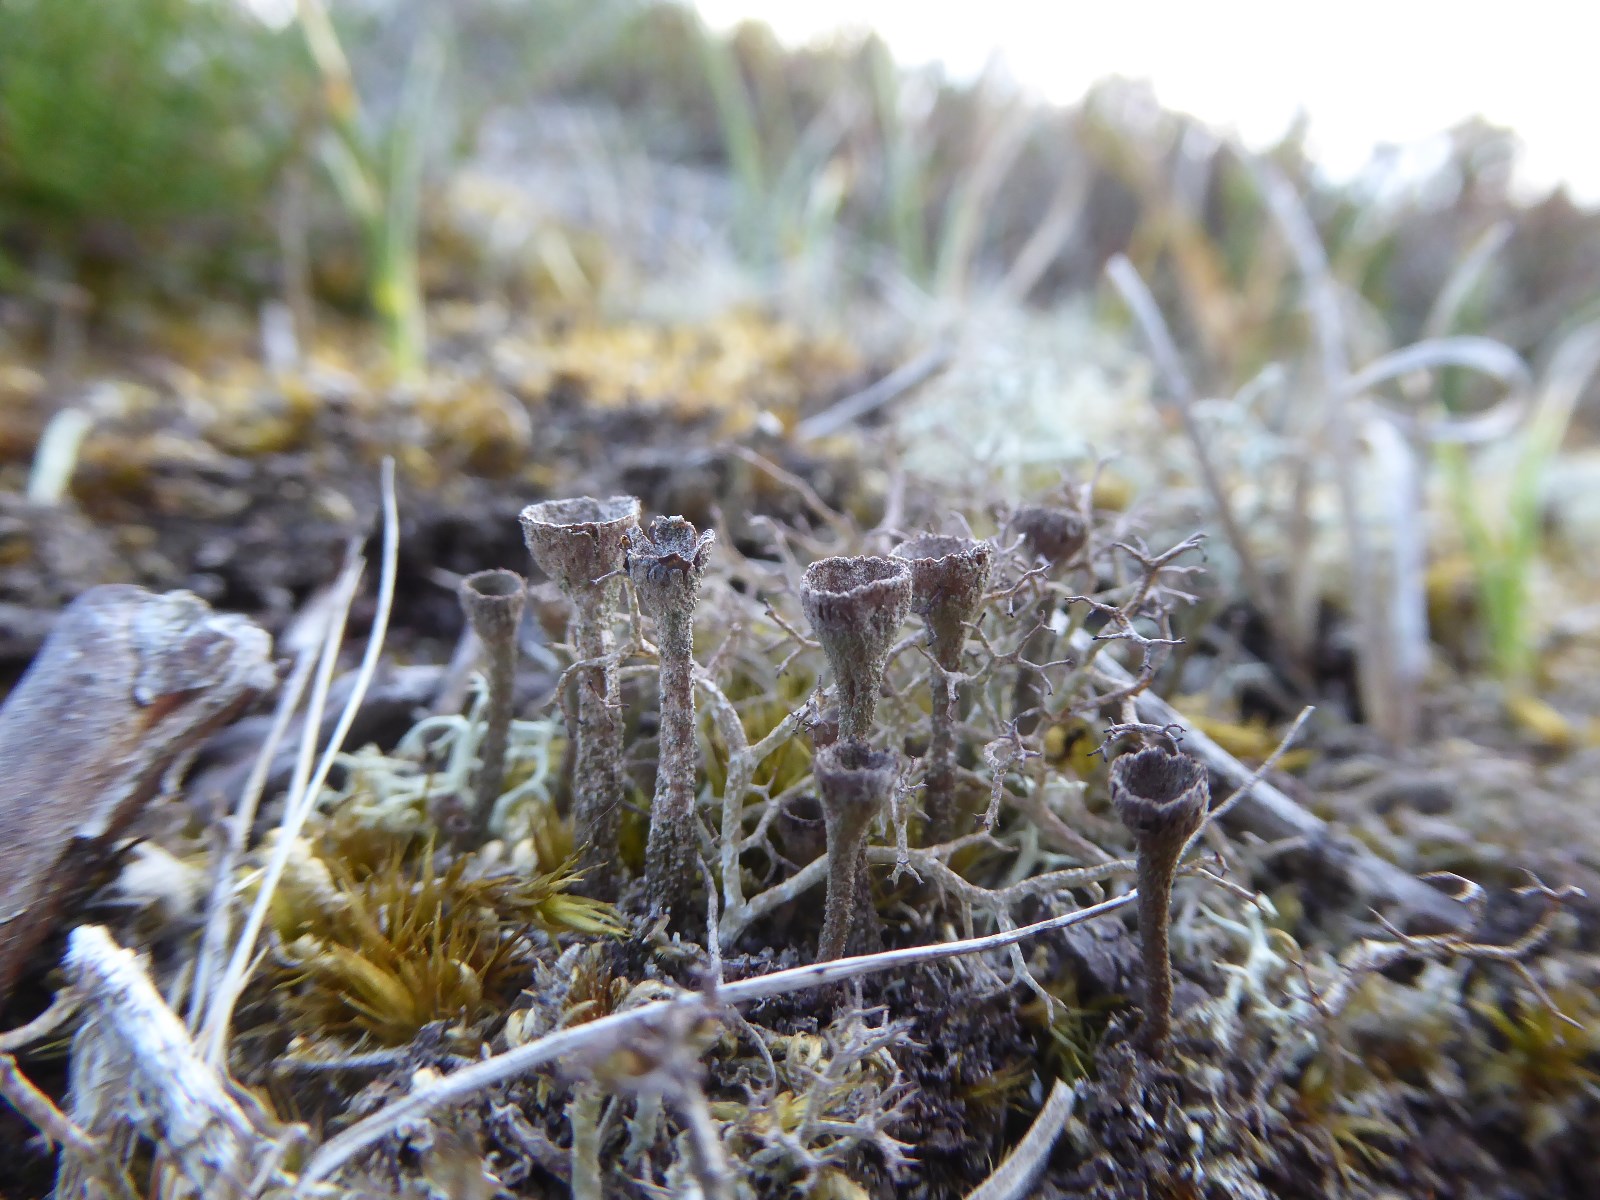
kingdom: Fungi
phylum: Ascomycota
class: Lecanoromycetes
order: Lecanorales
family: Cladoniaceae
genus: Cladonia
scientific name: Cladonia
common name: brungrøn bægerlav
